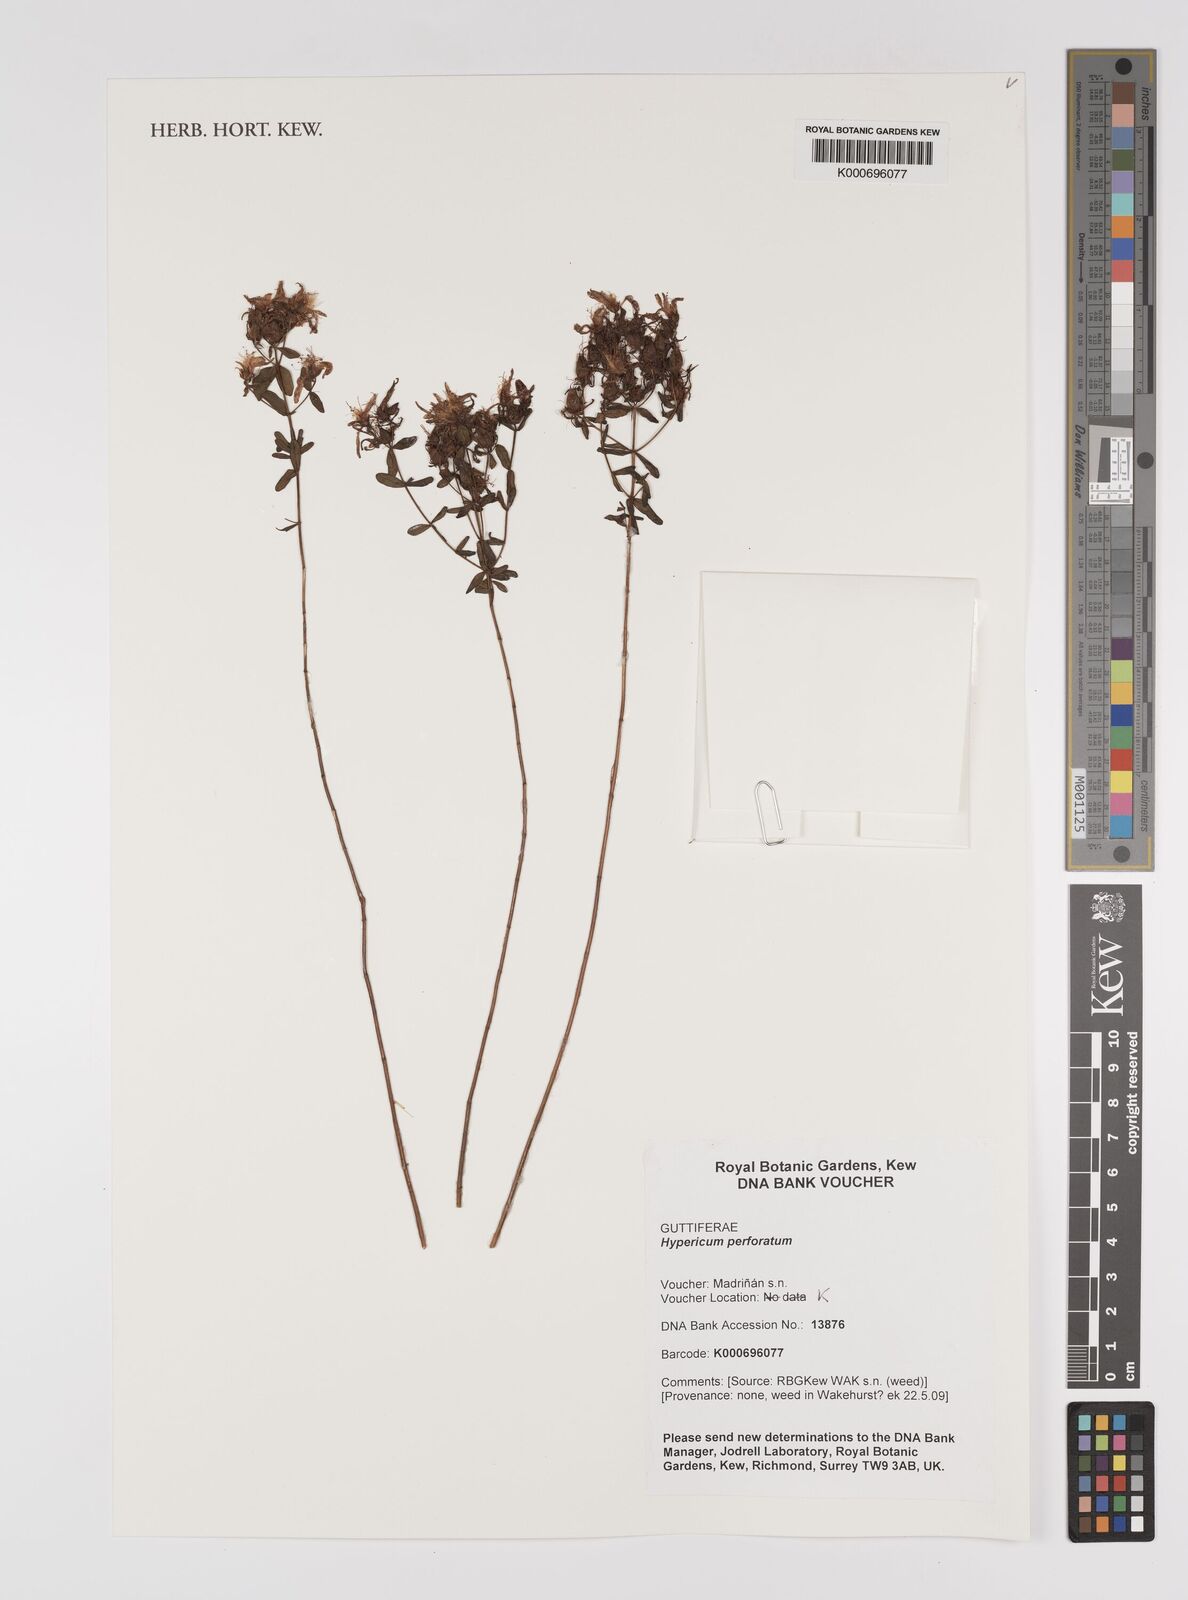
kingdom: Plantae
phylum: Tracheophyta
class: Magnoliopsida
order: Malpighiales
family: Hypericaceae
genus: Hypericum
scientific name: Hypericum perforatum
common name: Common st. johnswort
